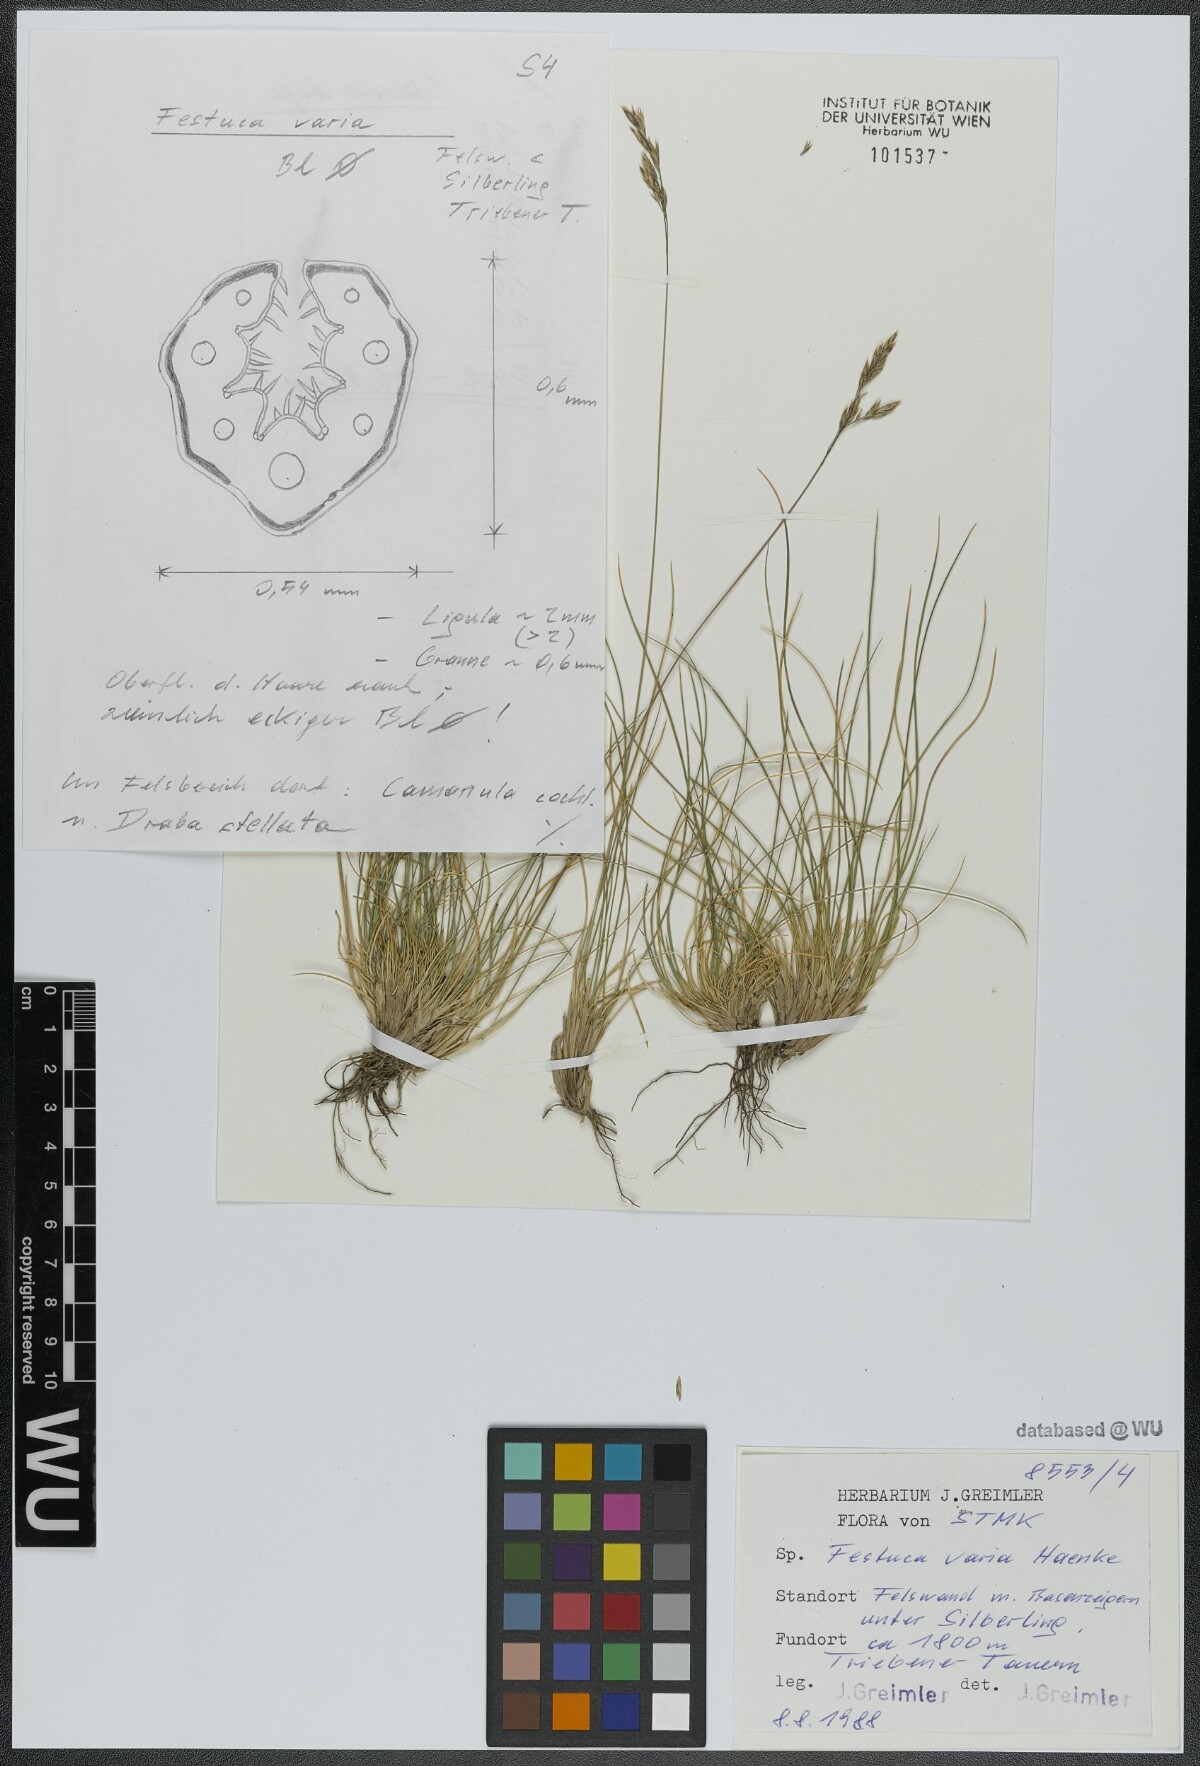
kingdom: Plantae
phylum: Tracheophyta
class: Liliopsida
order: Poales
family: Poaceae
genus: Festuca
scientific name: Festuca varia
